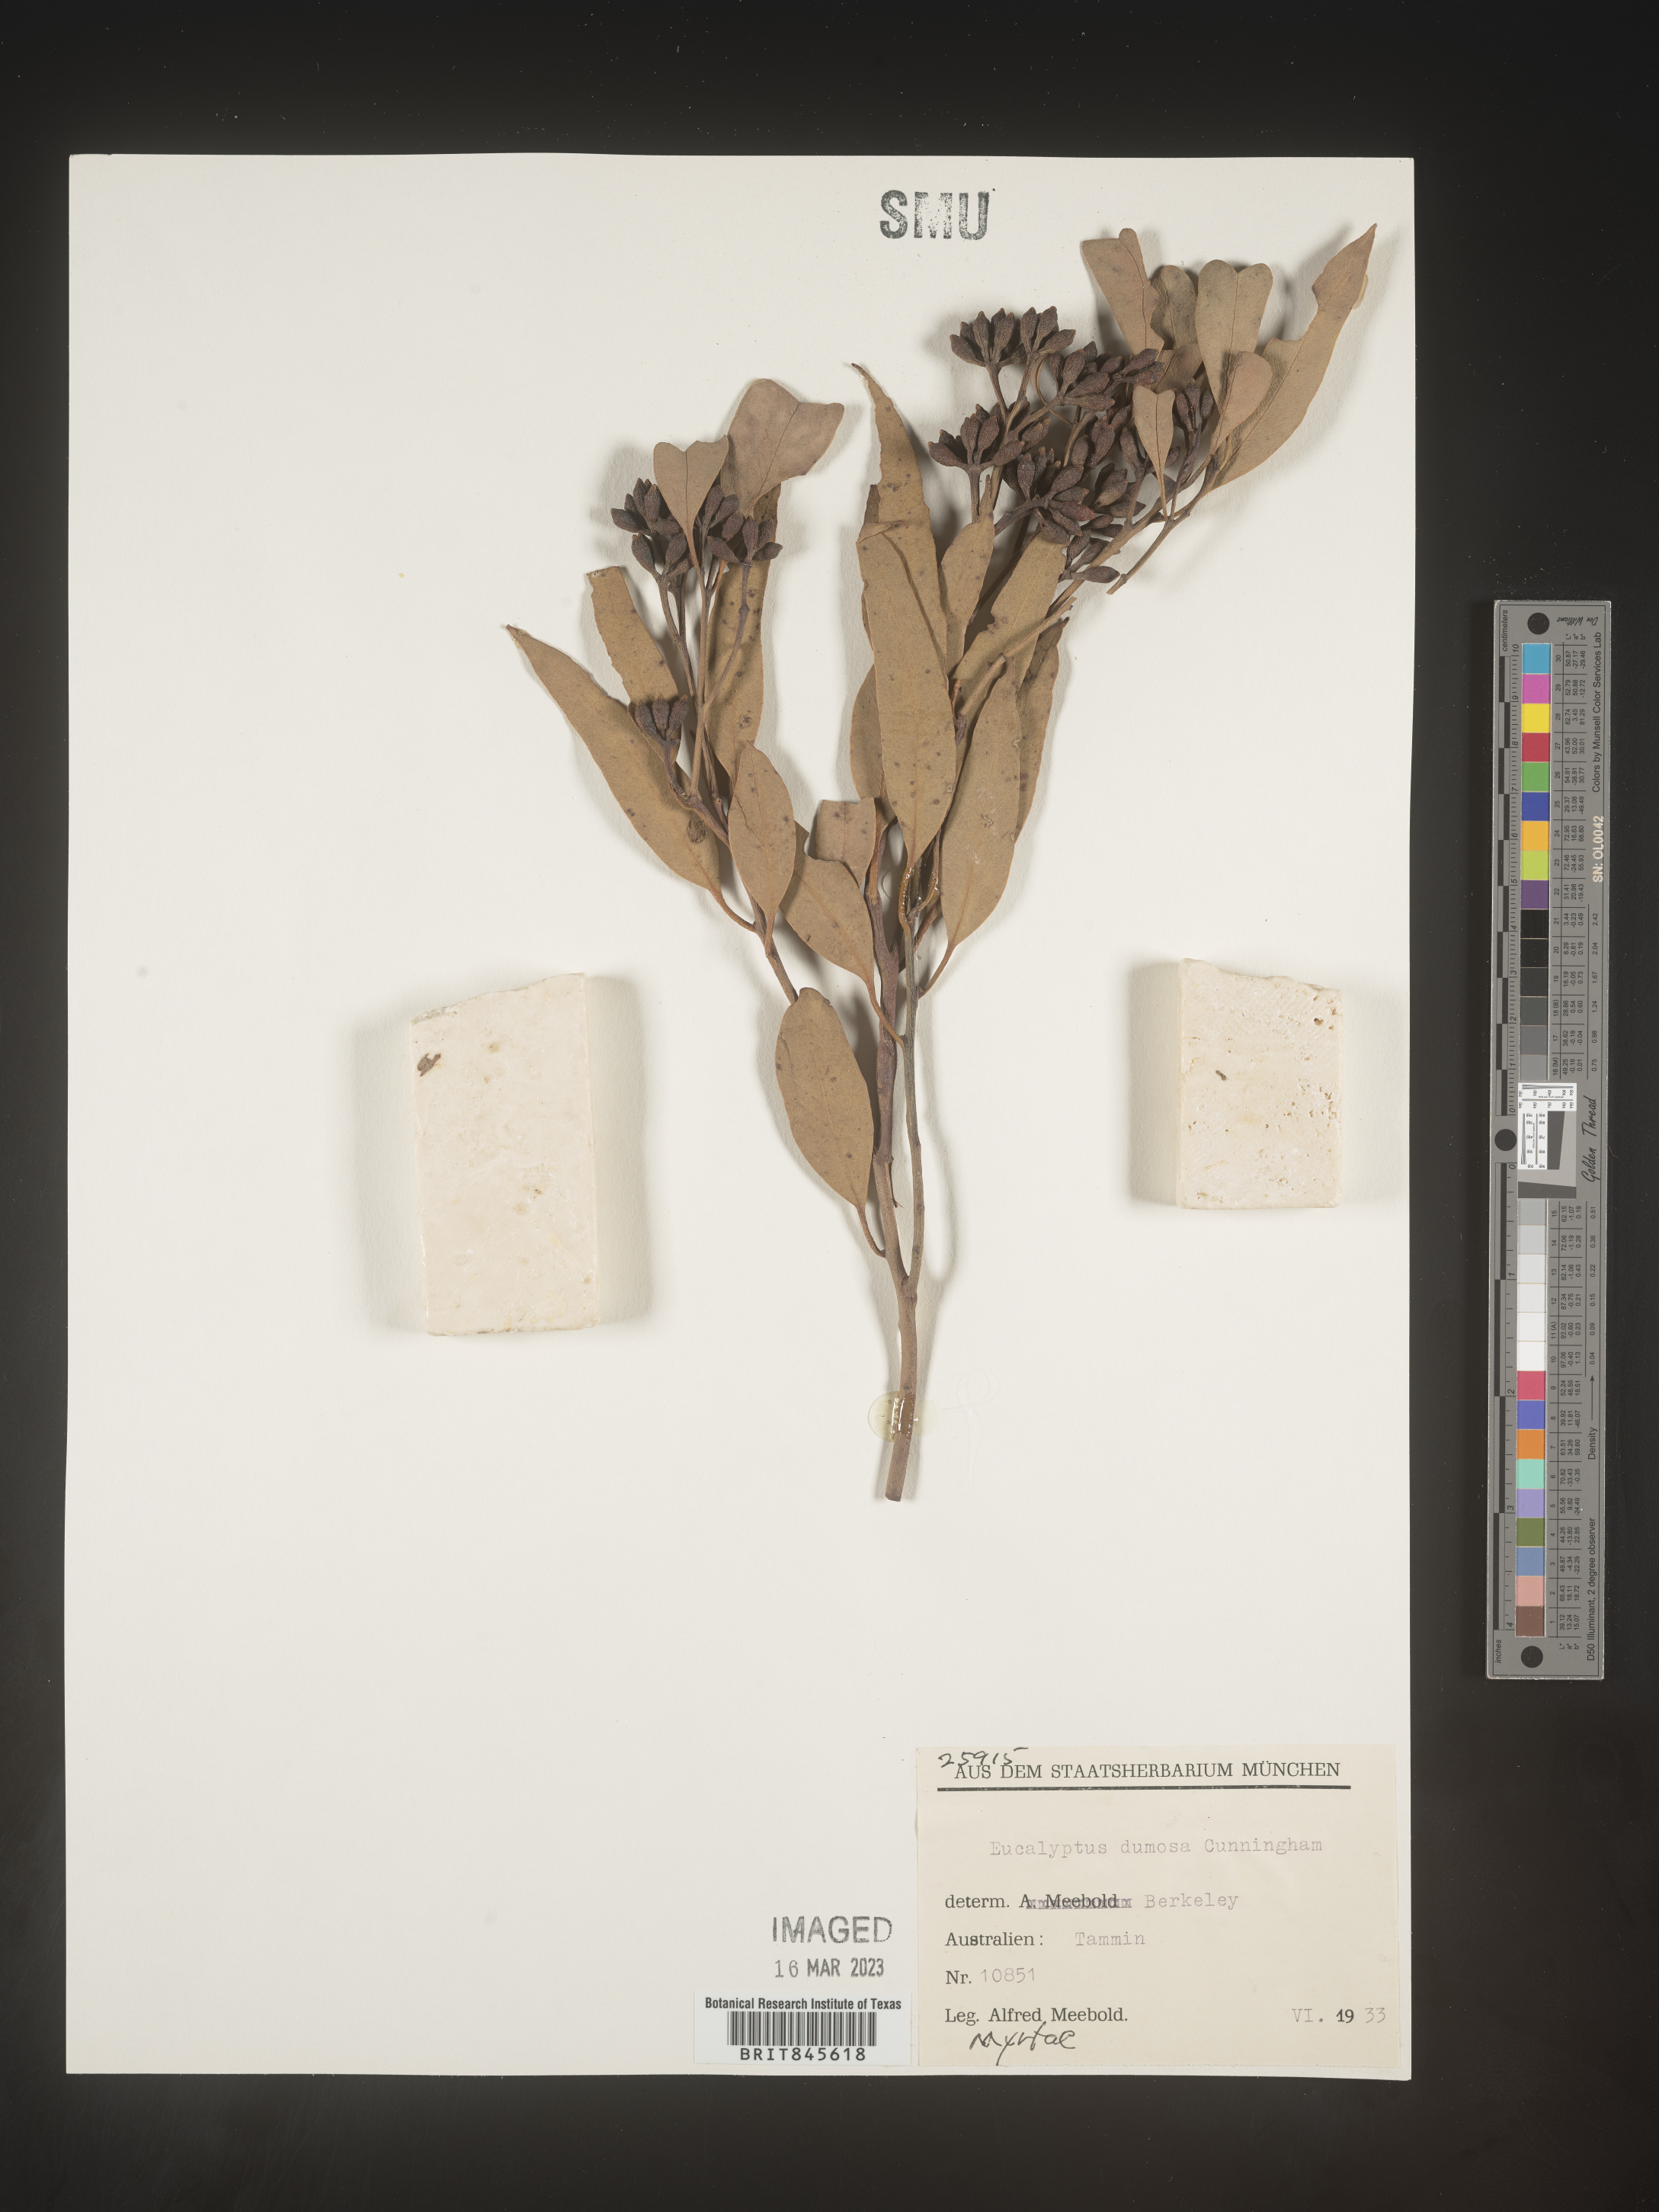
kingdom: Plantae
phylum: Tracheophyta
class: Magnoliopsida
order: Myrtales
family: Myrtaceae
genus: Eucalyptus
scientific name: Eucalyptus
